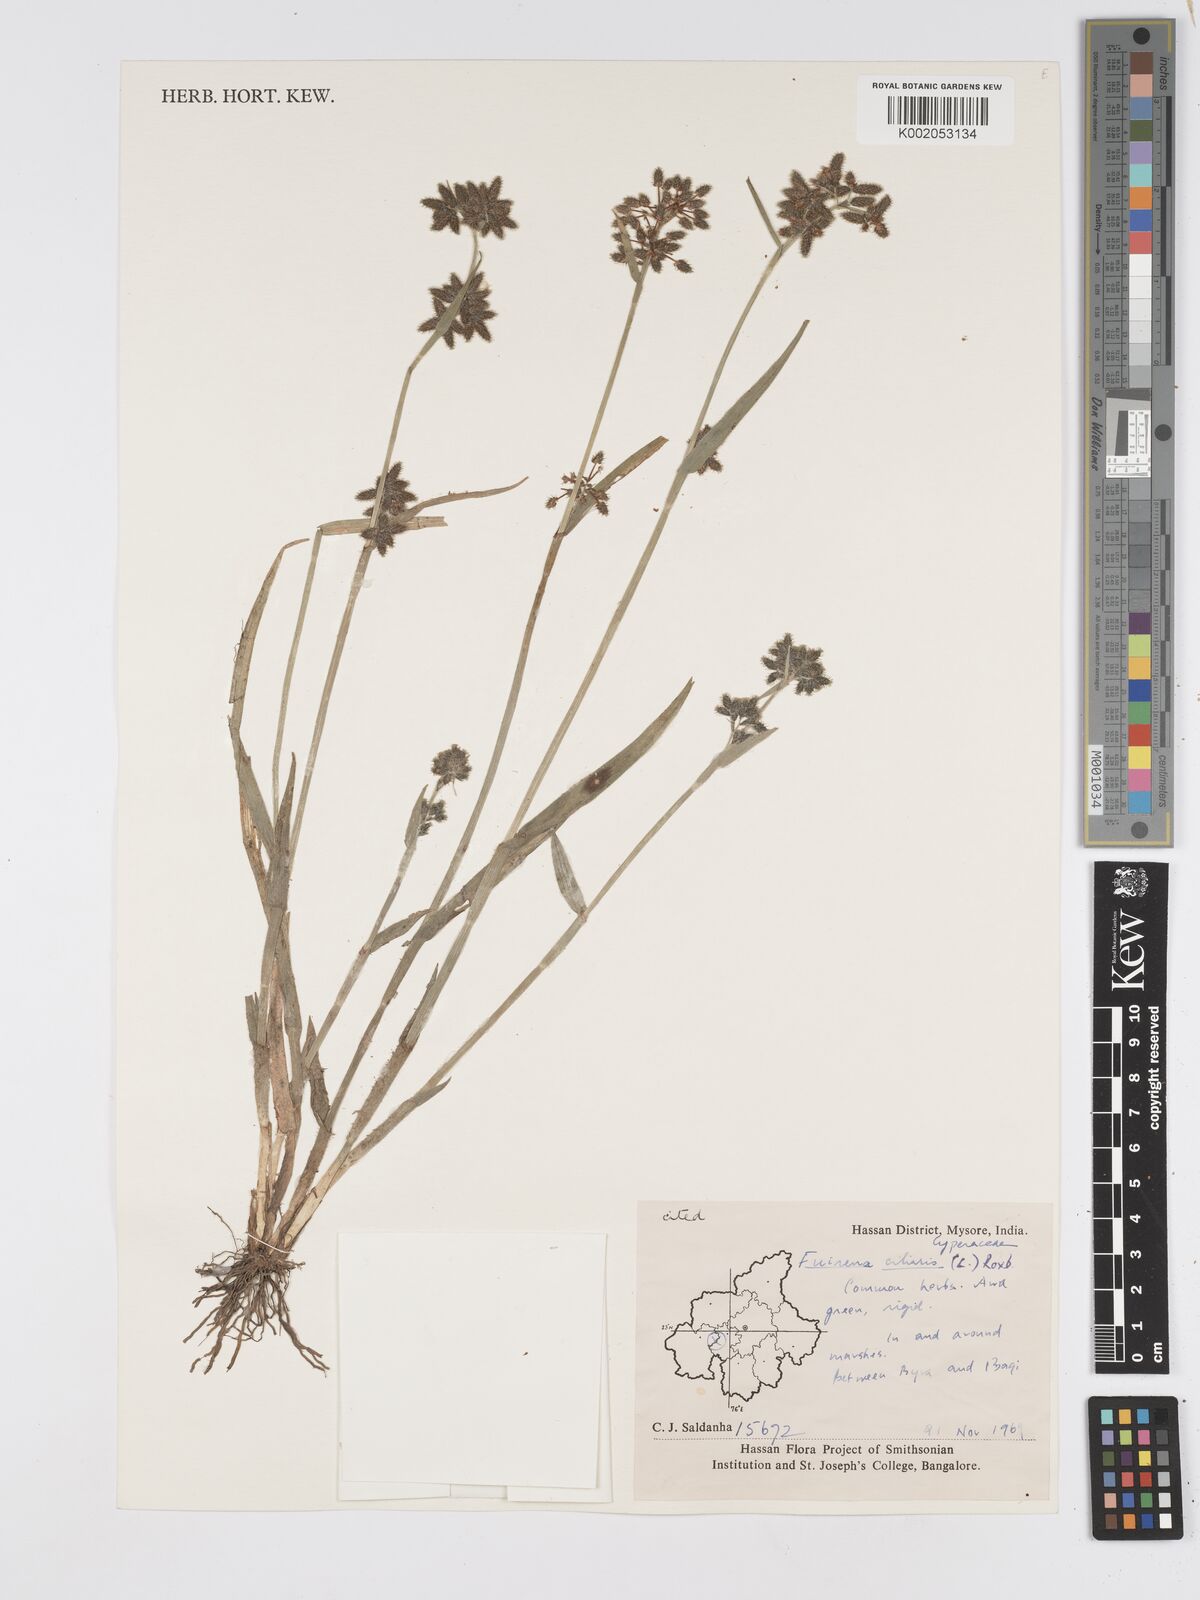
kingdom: Plantae
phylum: Tracheophyta
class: Liliopsida
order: Poales
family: Cyperaceae
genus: Fuirena
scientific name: Fuirena ciliaris
